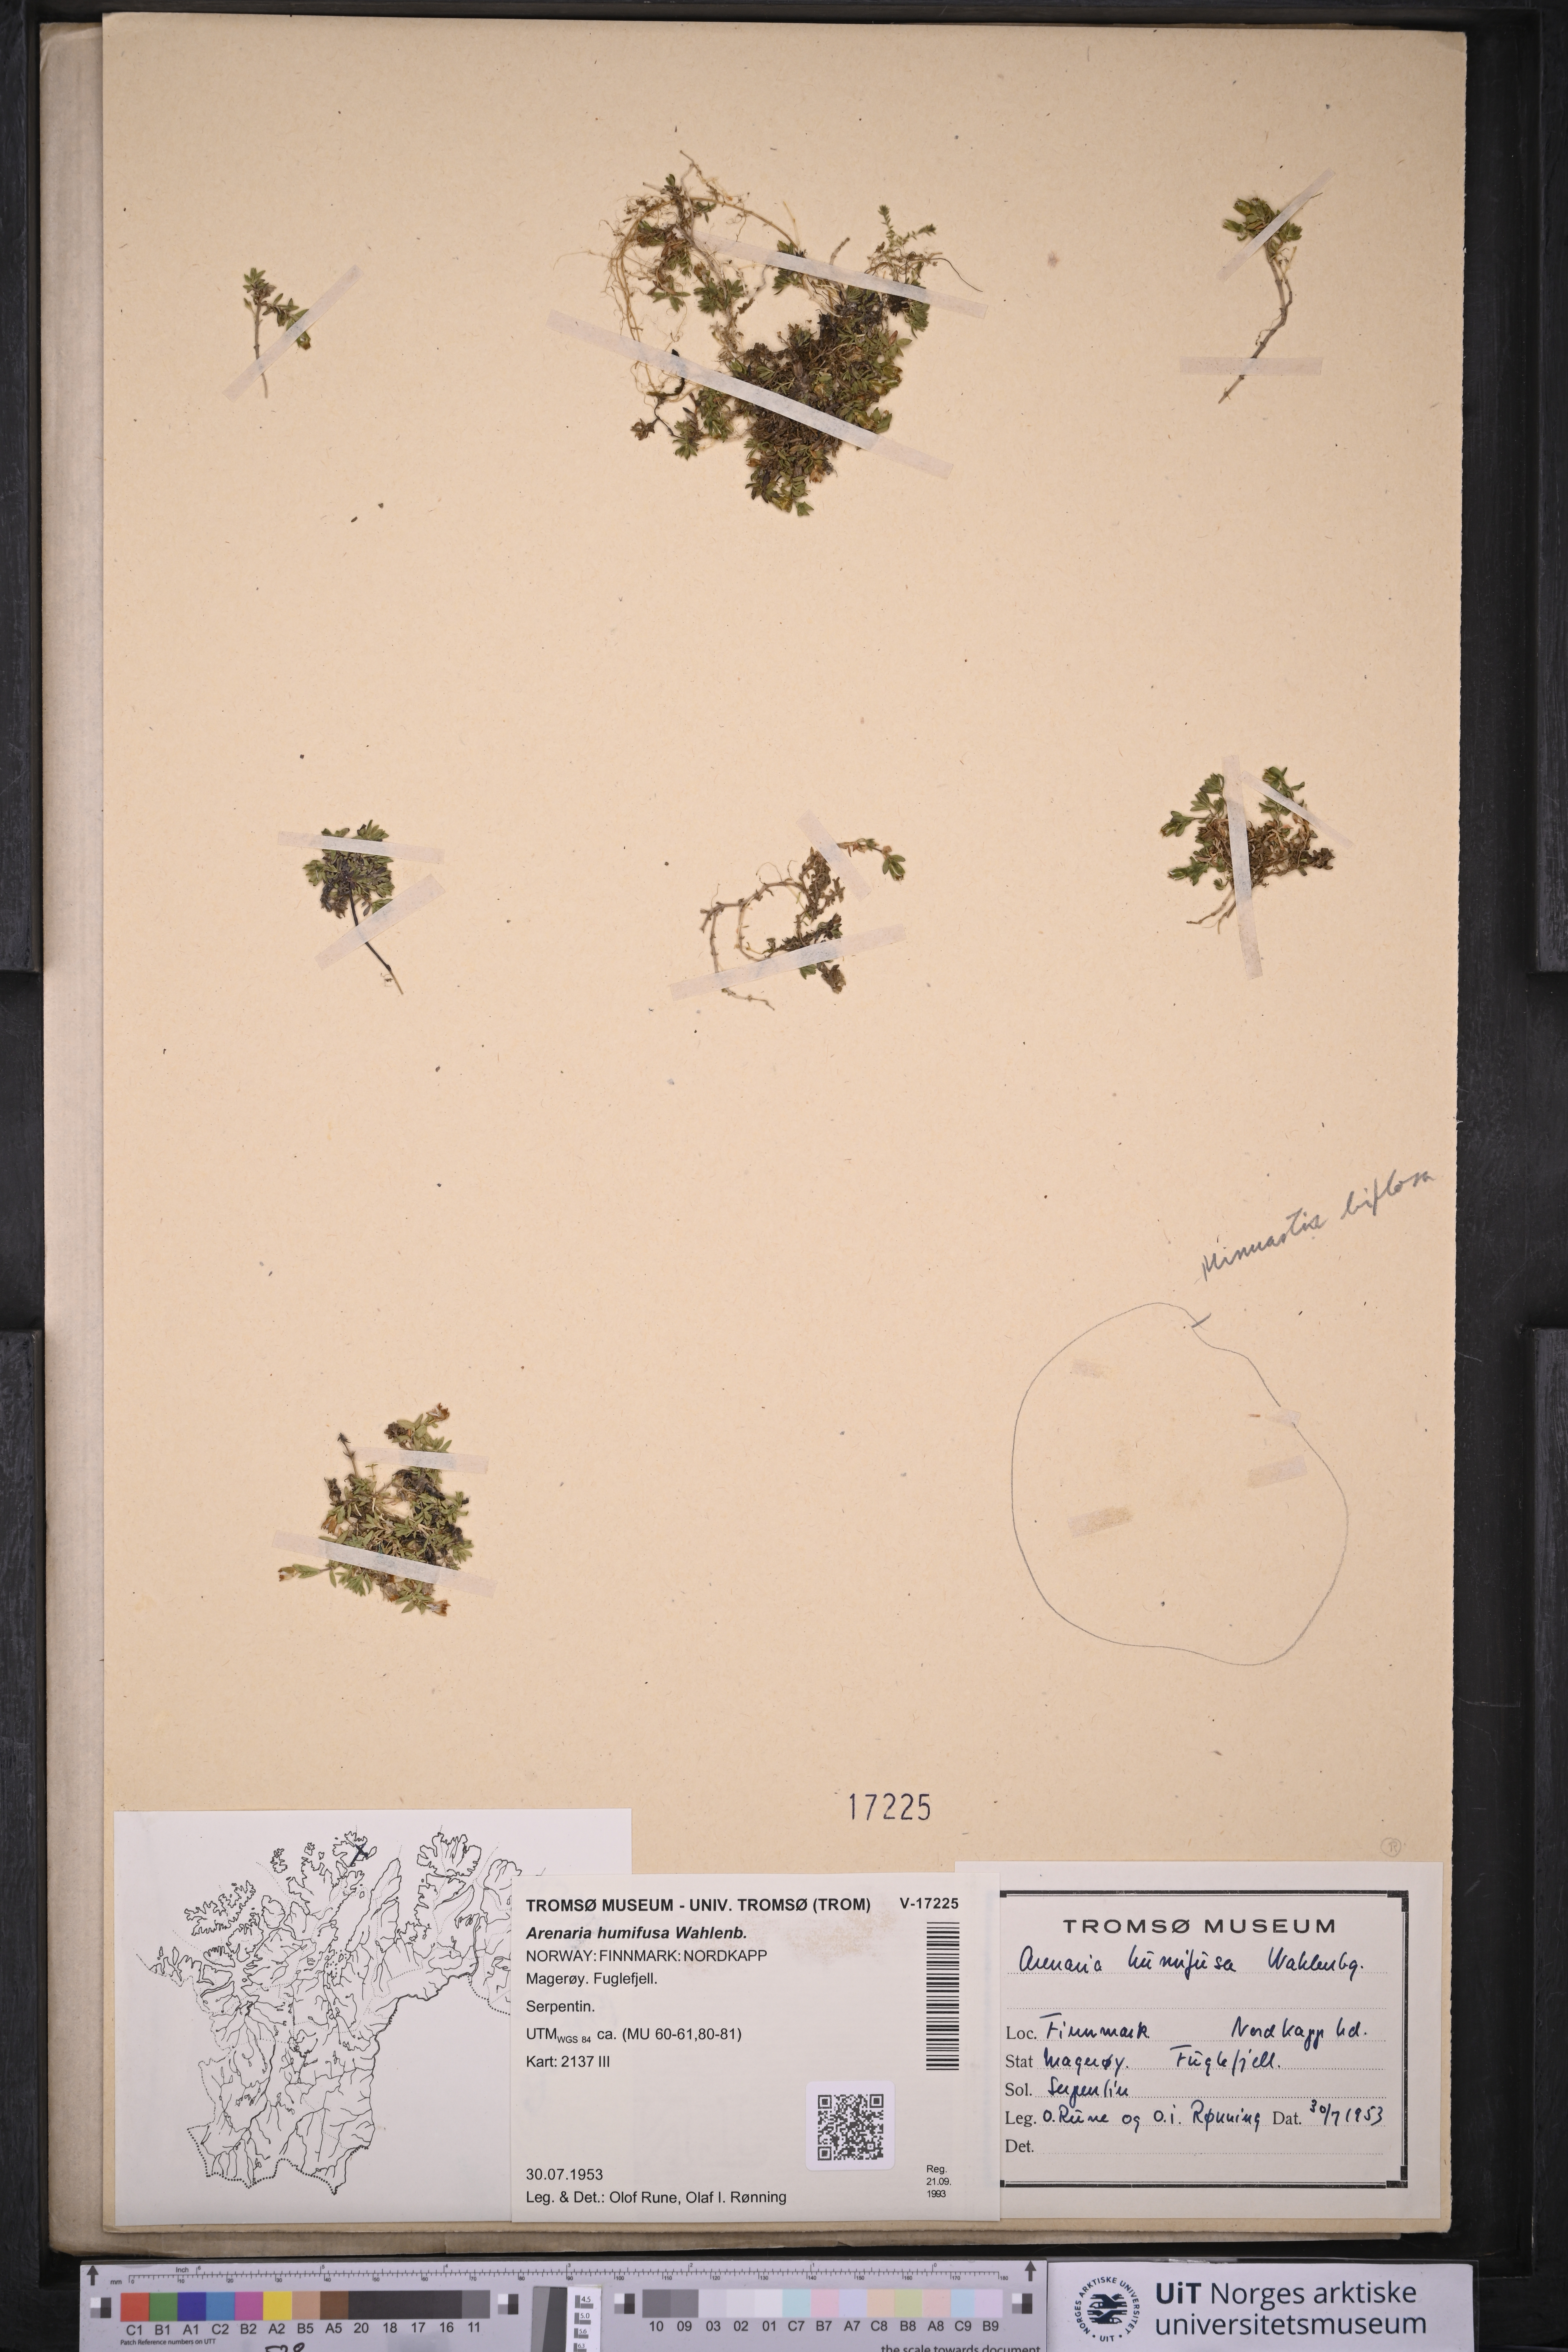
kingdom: Plantae
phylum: Tracheophyta
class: Magnoliopsida
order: Caryophyllales
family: Caryophyllaceae
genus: Arenaria
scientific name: Arenaria humifusa
